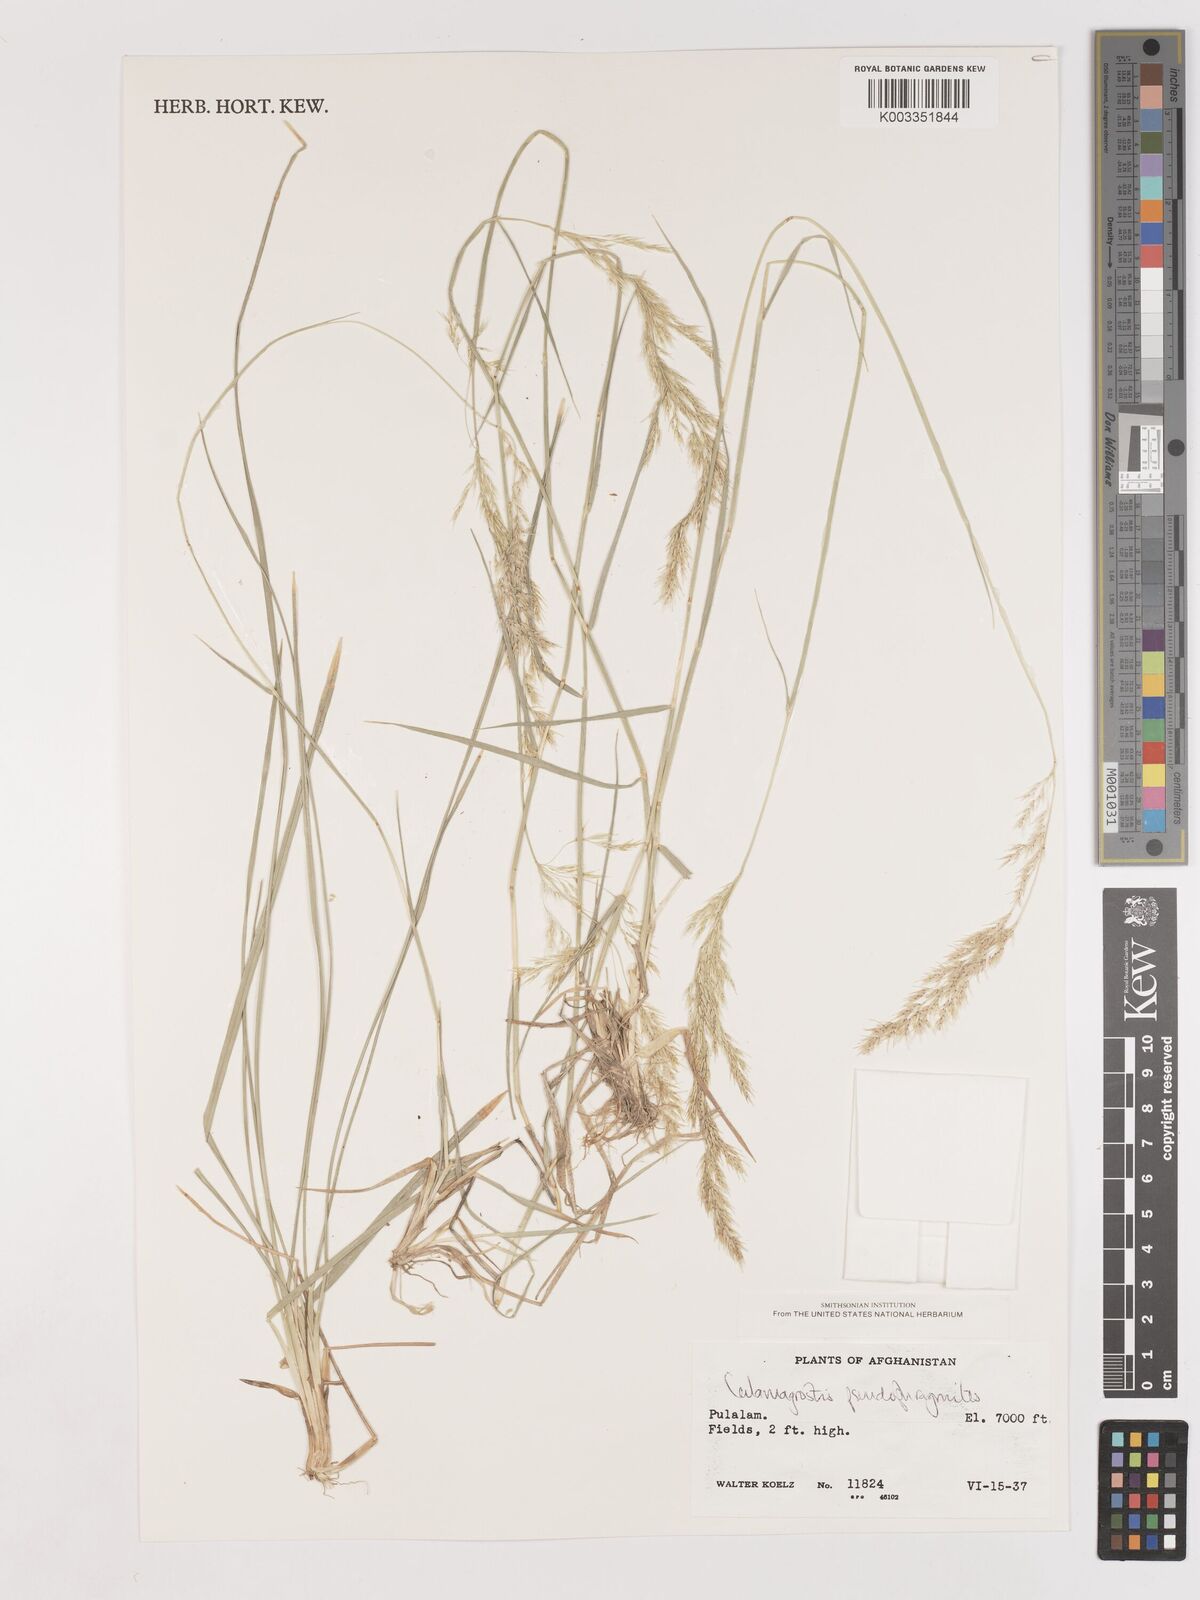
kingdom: Plantae
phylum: Tracheophyta
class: Liliopsida
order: Poales
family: Poaceae
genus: Calamagrostis
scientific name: Calamagrostis purpurea
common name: Scandinavian small-reed
